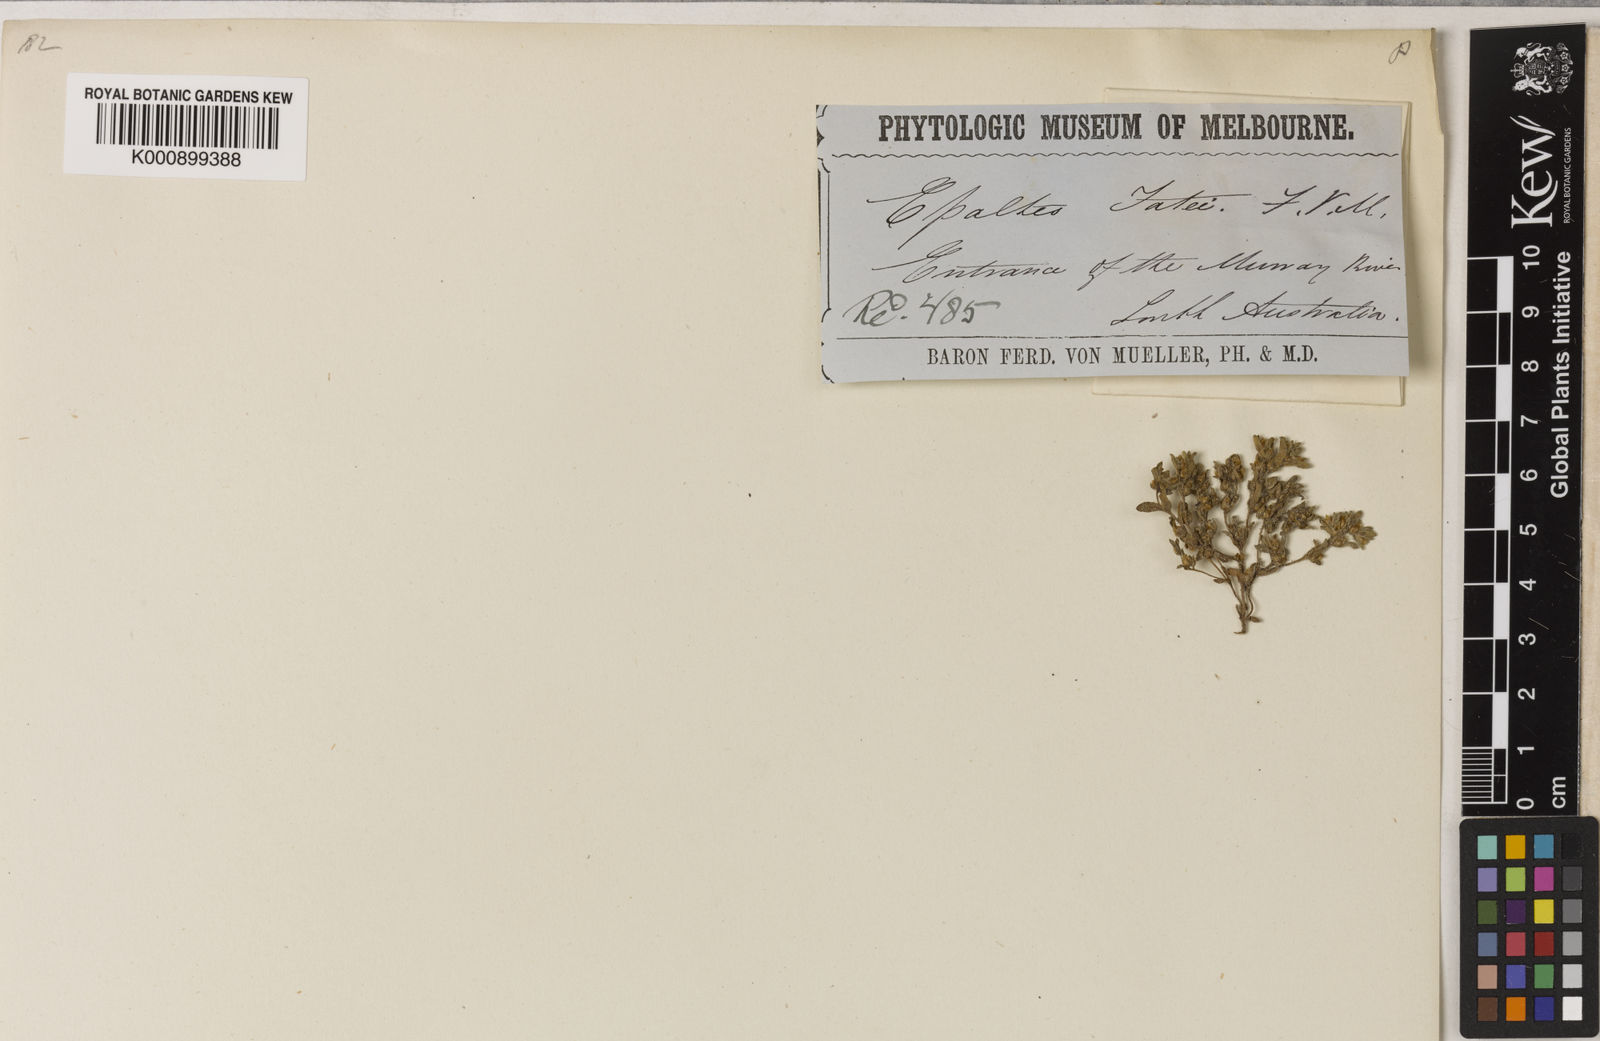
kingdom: Plantae
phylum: Tracheophyta
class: Magnoliopsida
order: Asterales
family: Asteraceae
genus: Haegiela
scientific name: Haegiela
